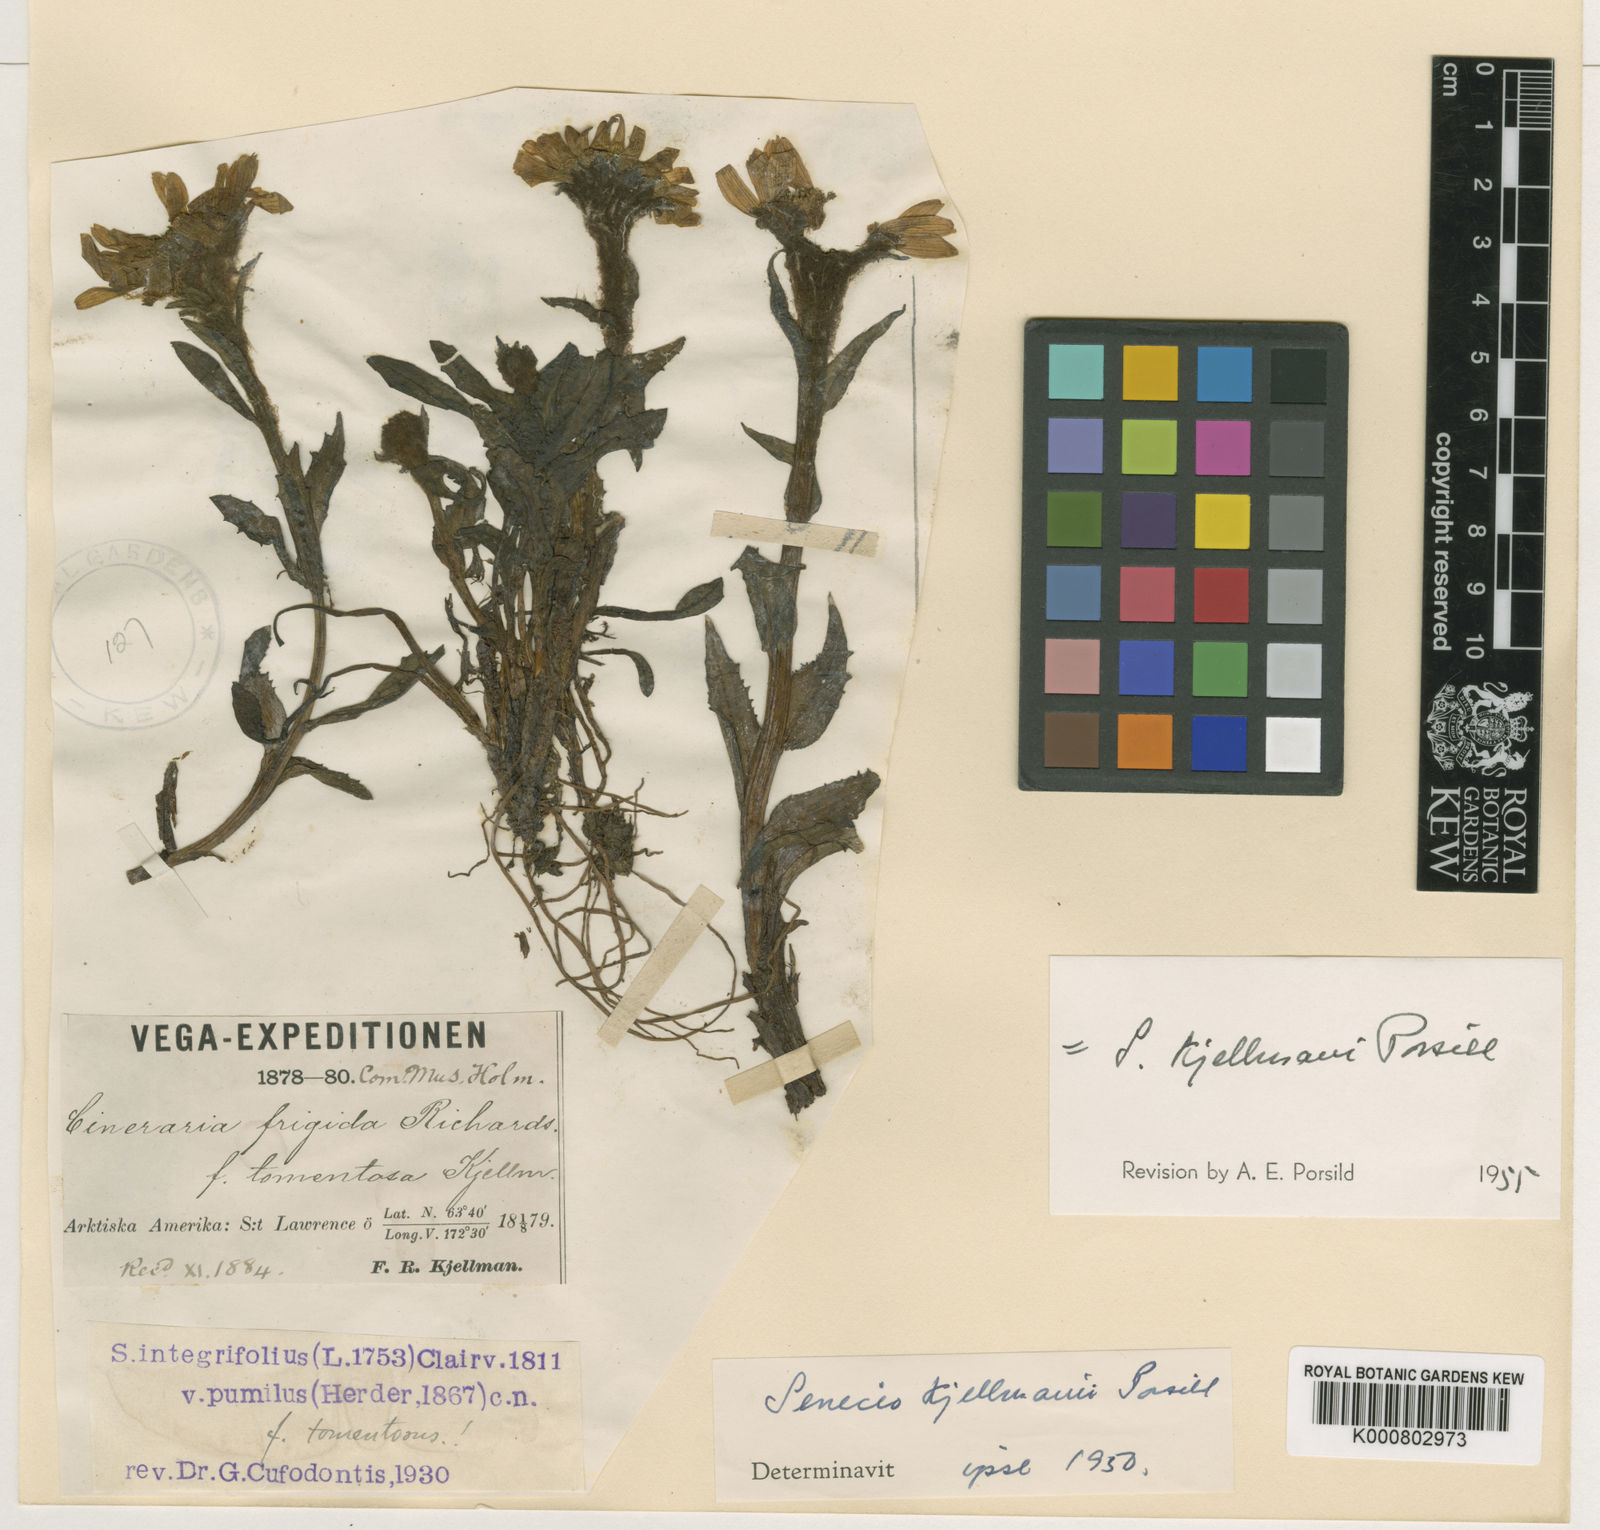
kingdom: Plantae
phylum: Tracheophyta
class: Magnoliopsida
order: Asterales
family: Asteraceae
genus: Tephroseris
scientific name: Tephroseris kjellmanii
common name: Kjellman's groundsel
